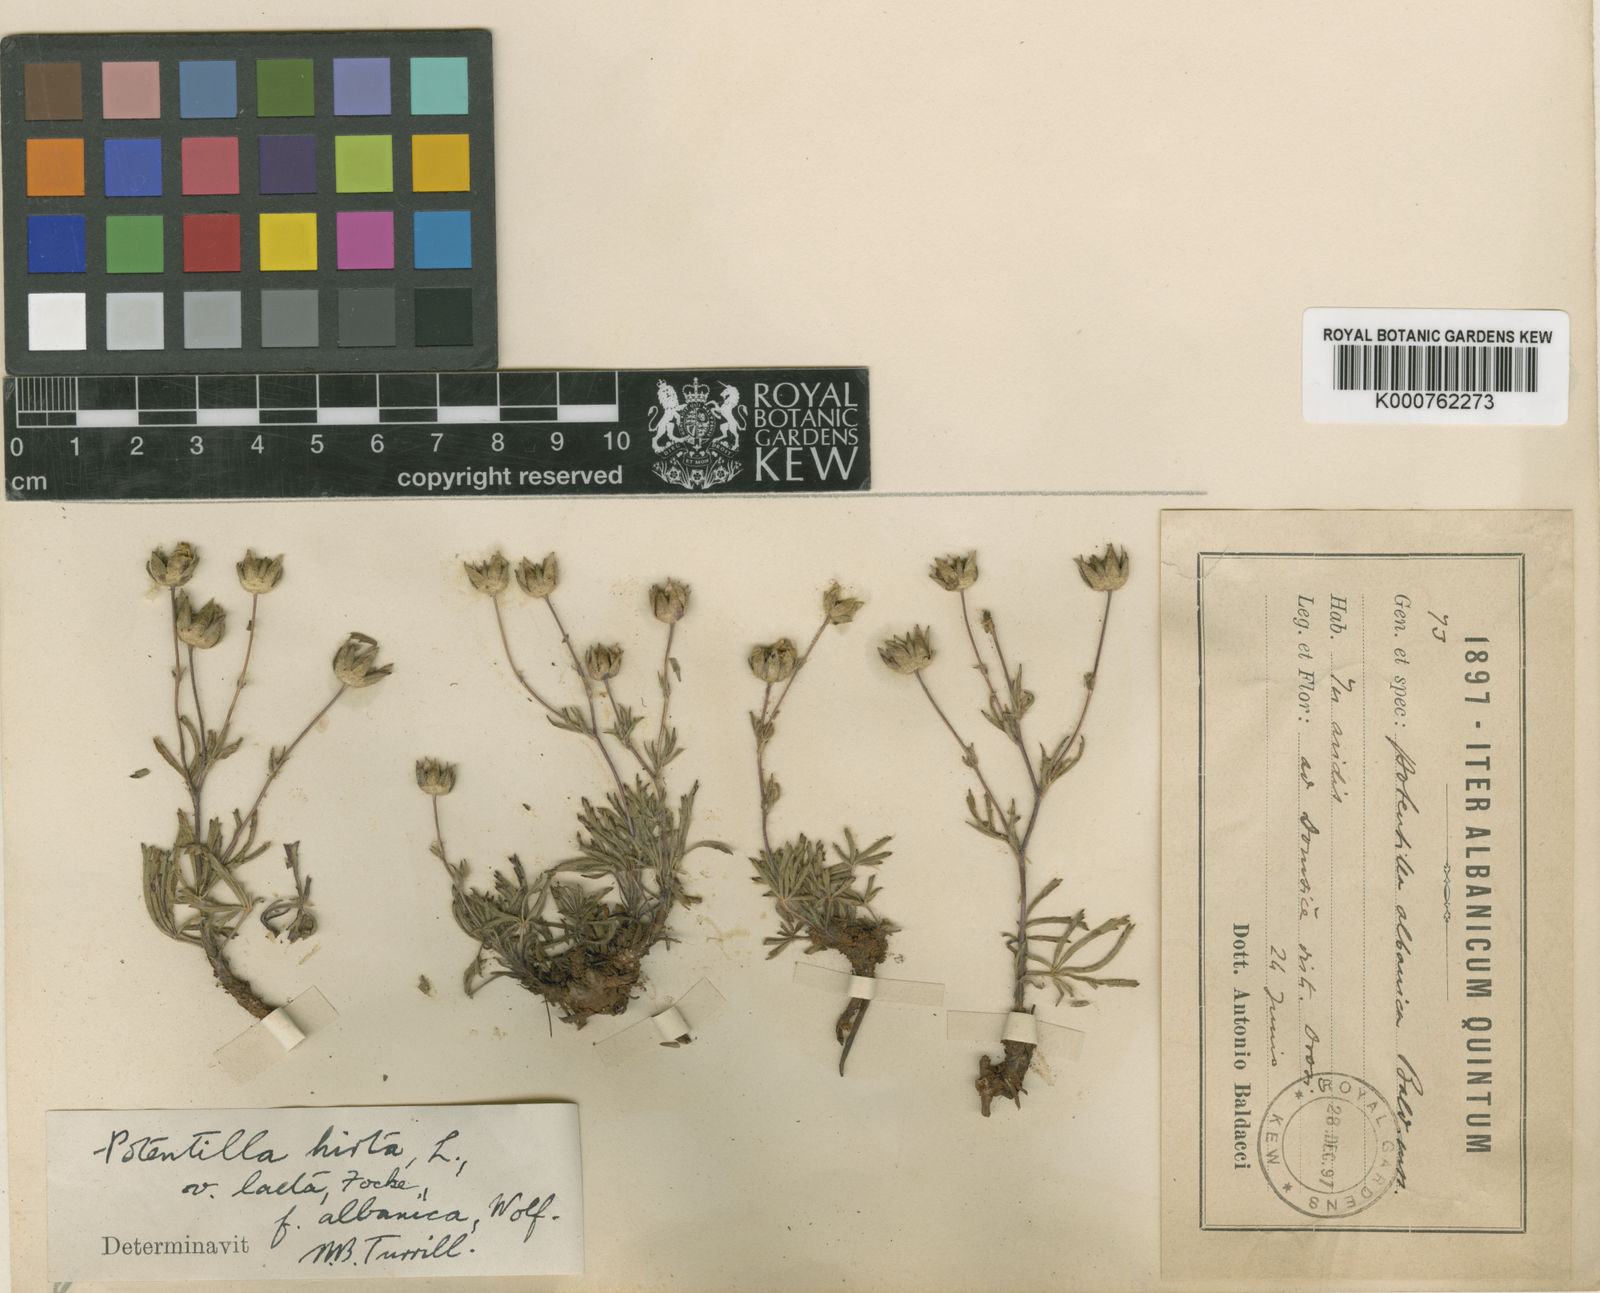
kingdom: Plantae
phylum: Tracheophyta
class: Magnoliopsida
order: Rosales
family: Rosaceae
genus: Potentilla
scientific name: Potentilla hirta
